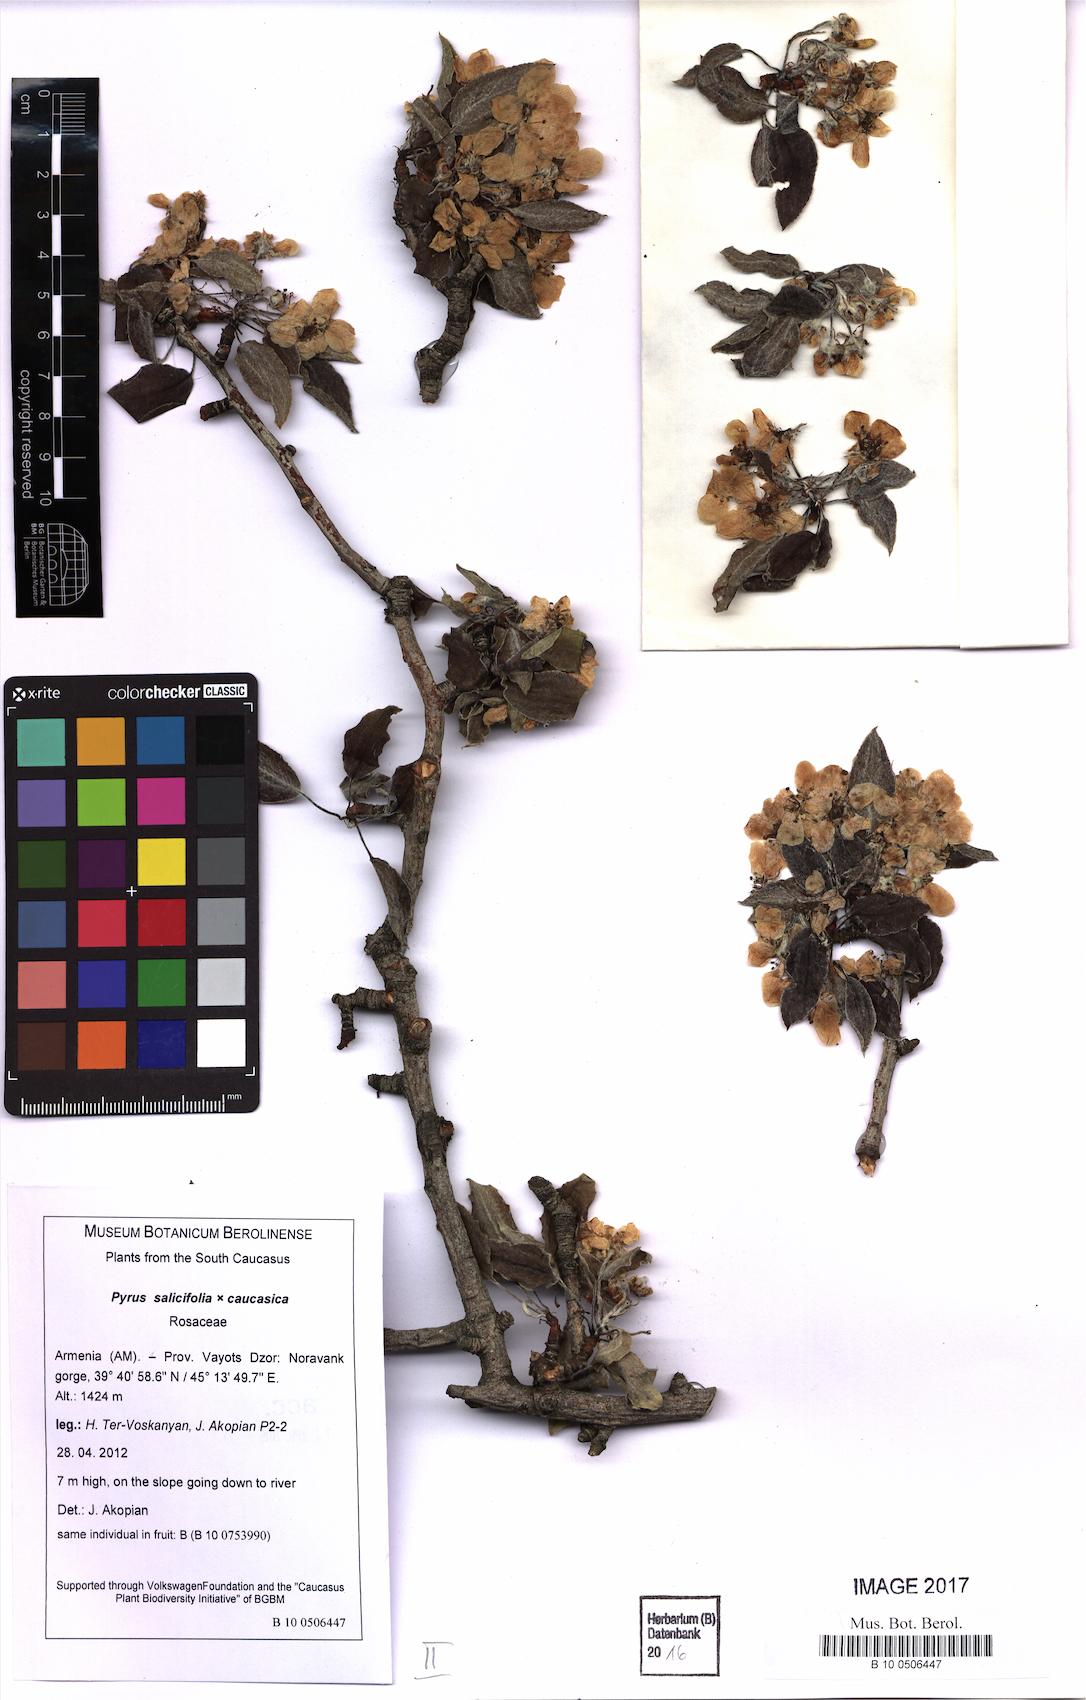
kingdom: Plantae
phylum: Tracheophyta
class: Magnoliopsida
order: Rosales
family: Rosaceae
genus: Pyrus
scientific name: Pyrus salicifolia
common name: Willow-leaved pear
